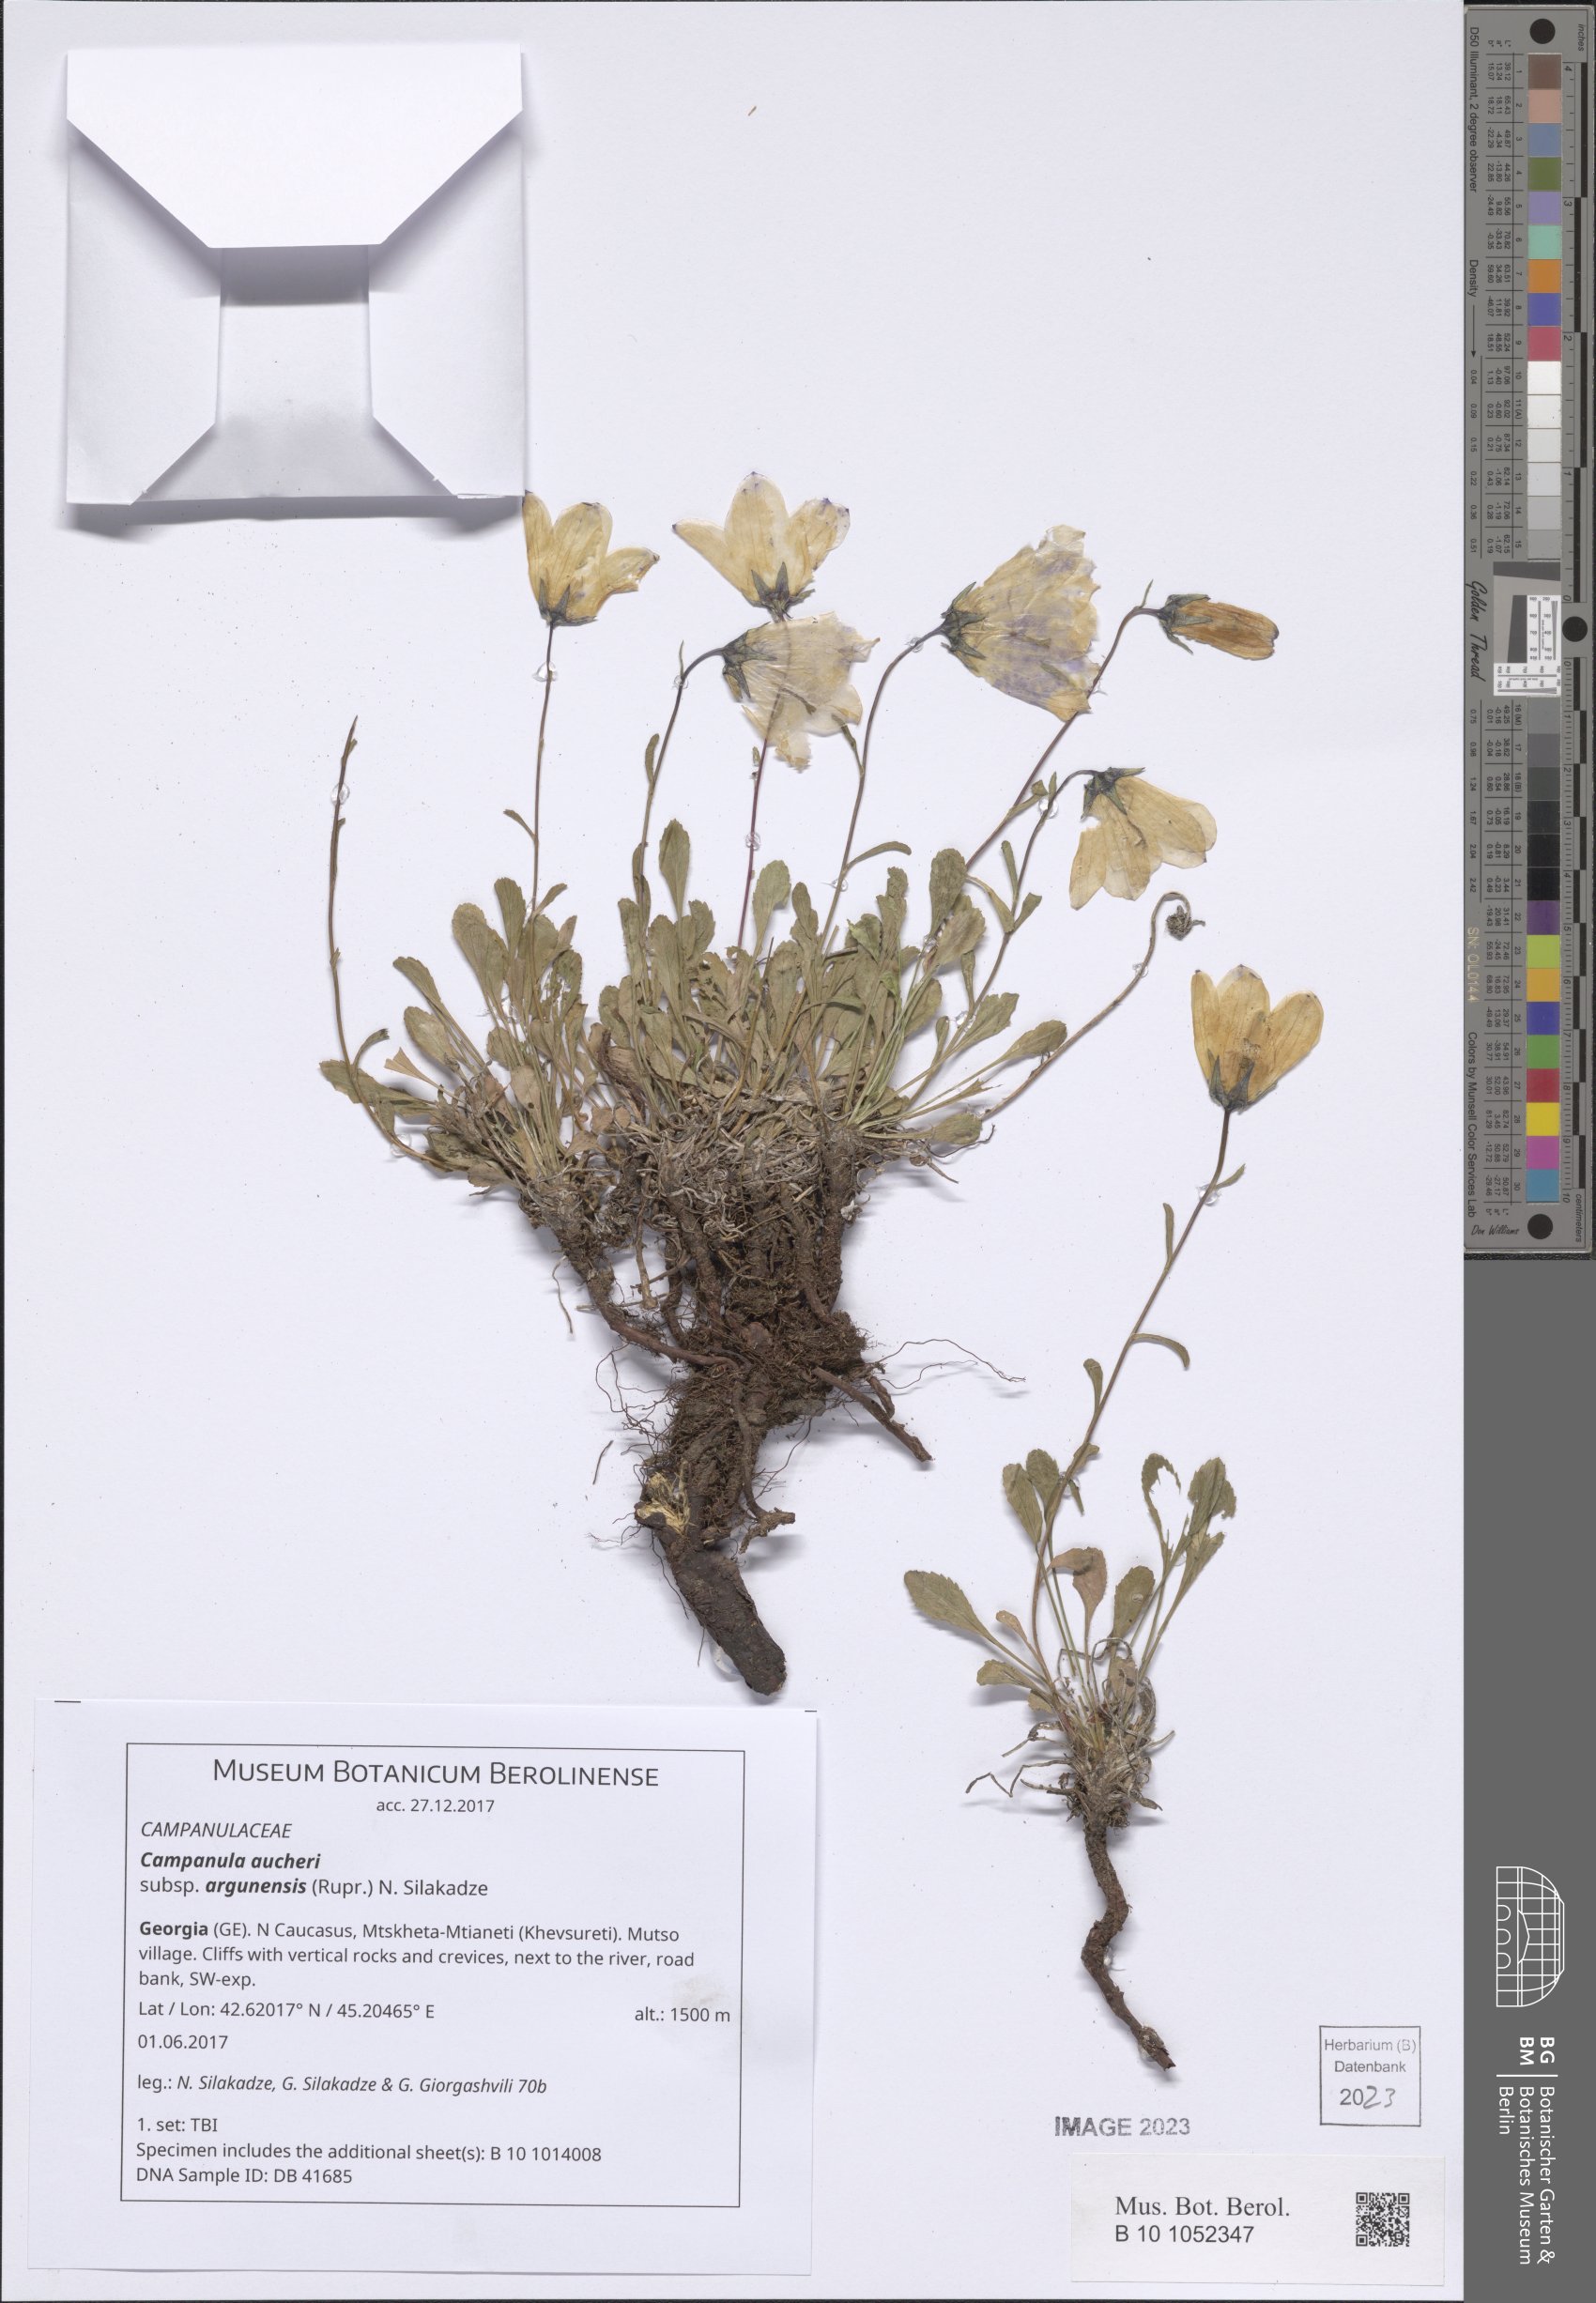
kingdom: Plantae
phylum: Tracheophyta
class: Magnoliopsida
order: Asterales
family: Campanulaceae
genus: Campanula
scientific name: Campanula saxifraga
